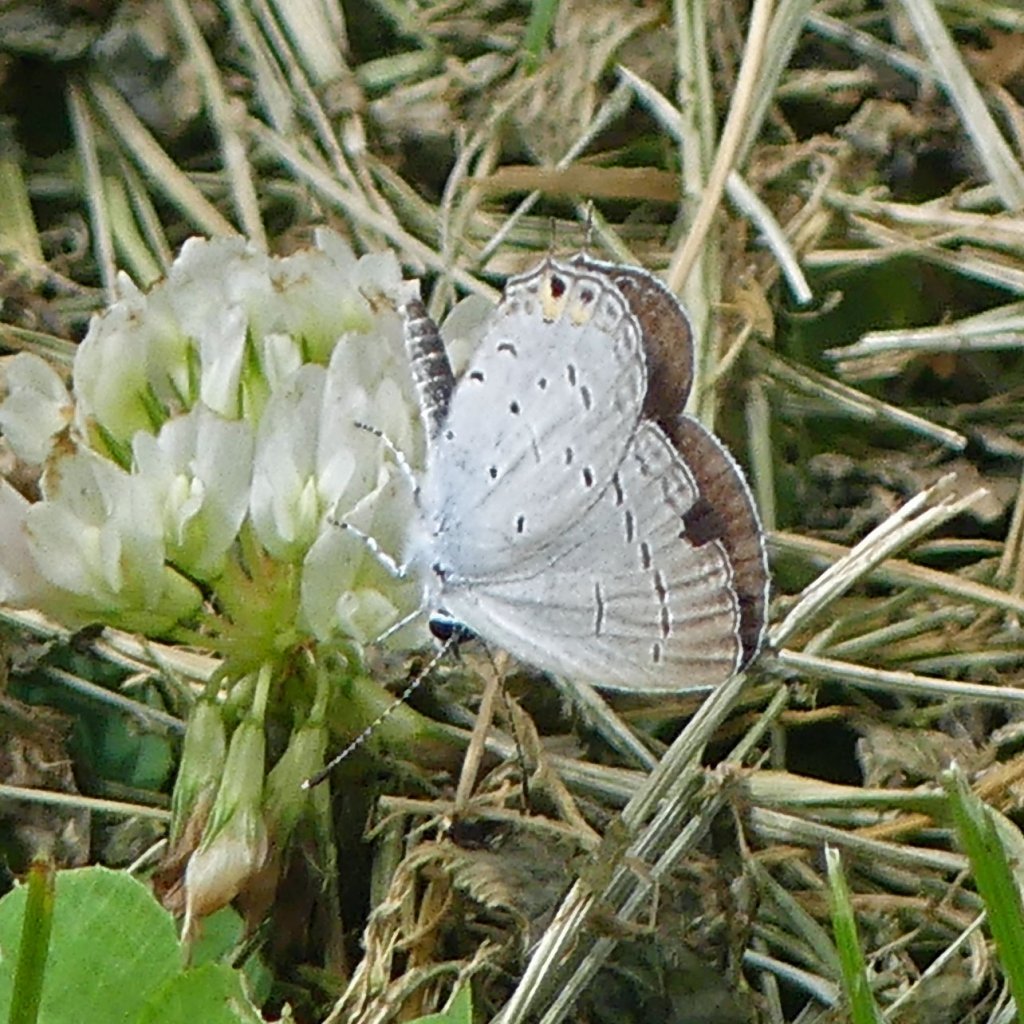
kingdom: Animalia
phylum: Arthropoda
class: Insecta
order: Lepidoptera
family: Lycaenidae
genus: Elkalyce
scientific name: Elkalyce comyntas
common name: Eastern Tailed-Blue
